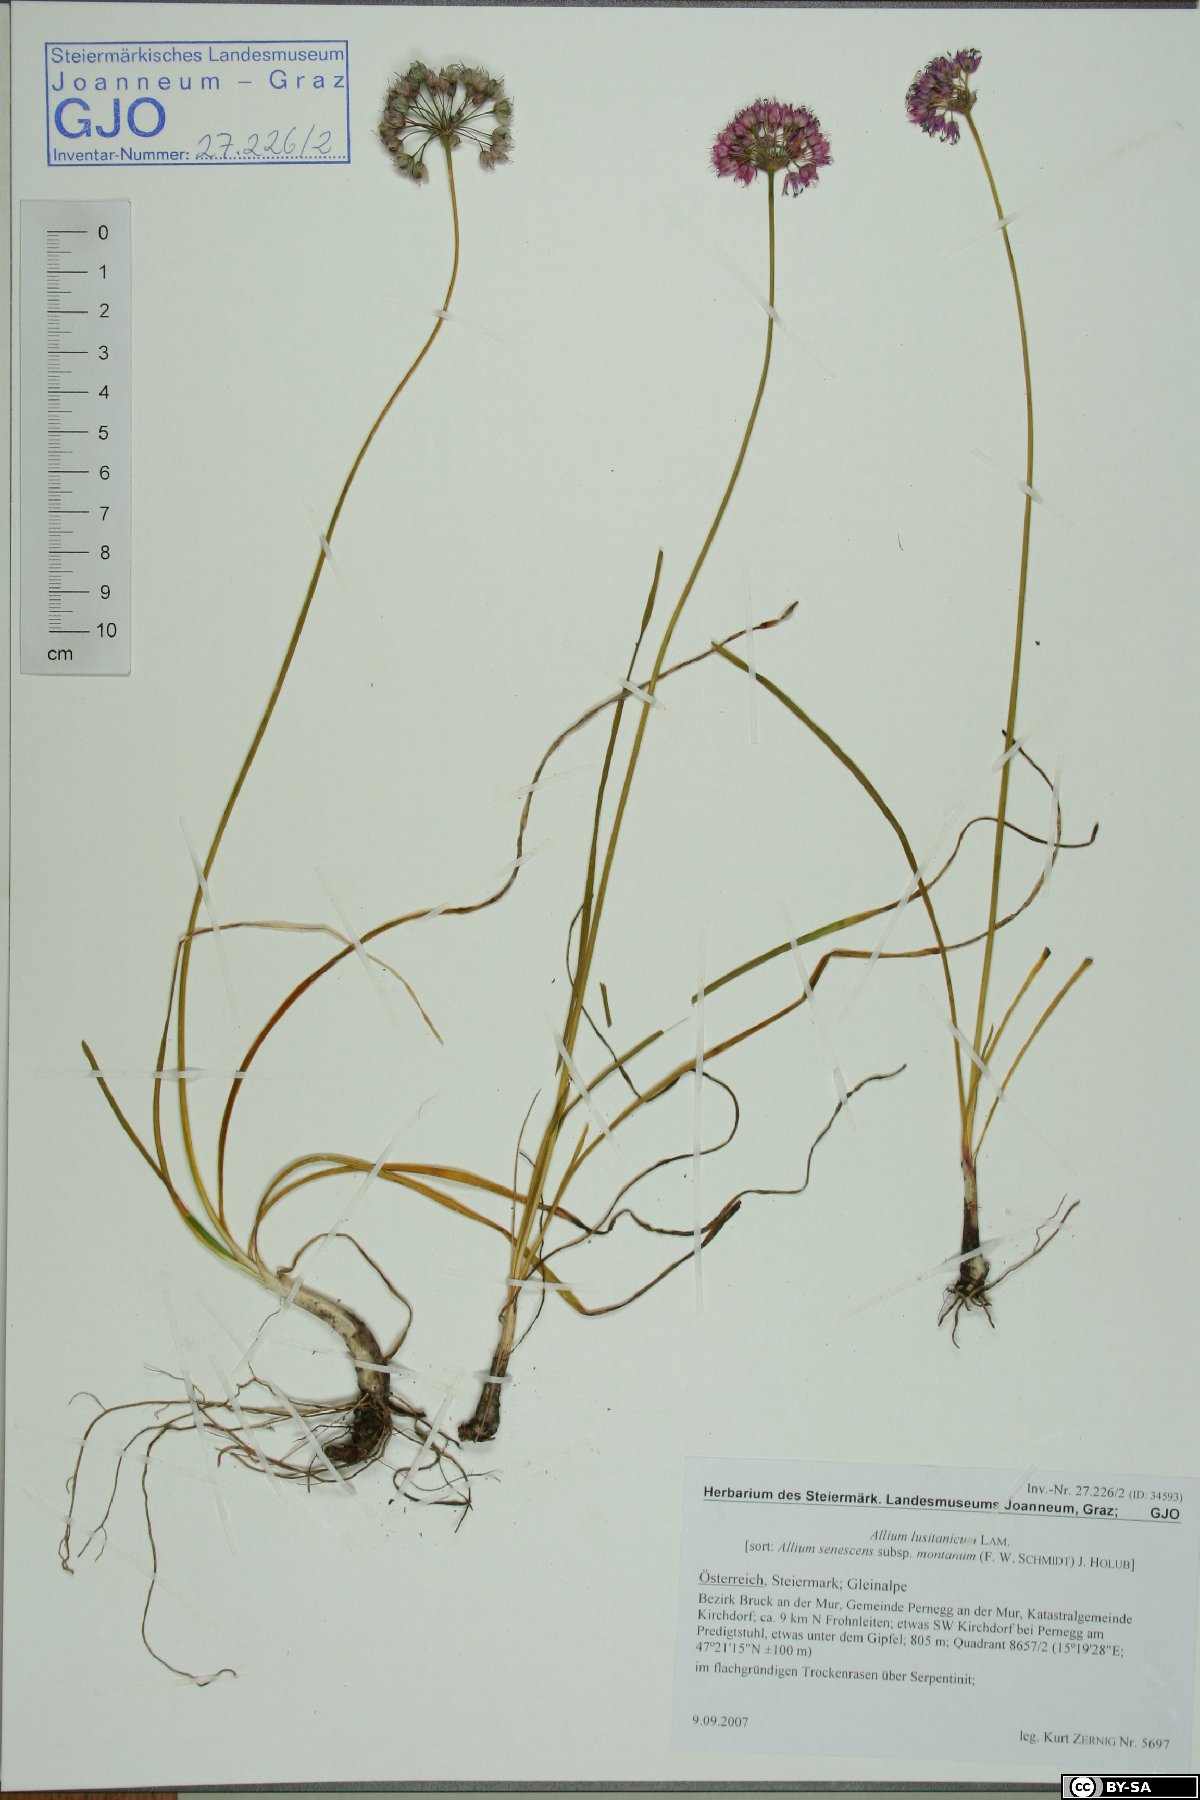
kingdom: Plantae
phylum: Tracheophyta
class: Liliopsida
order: Asparagales
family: Amaryllidaceae
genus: Allium
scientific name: Allium lusitanicum
